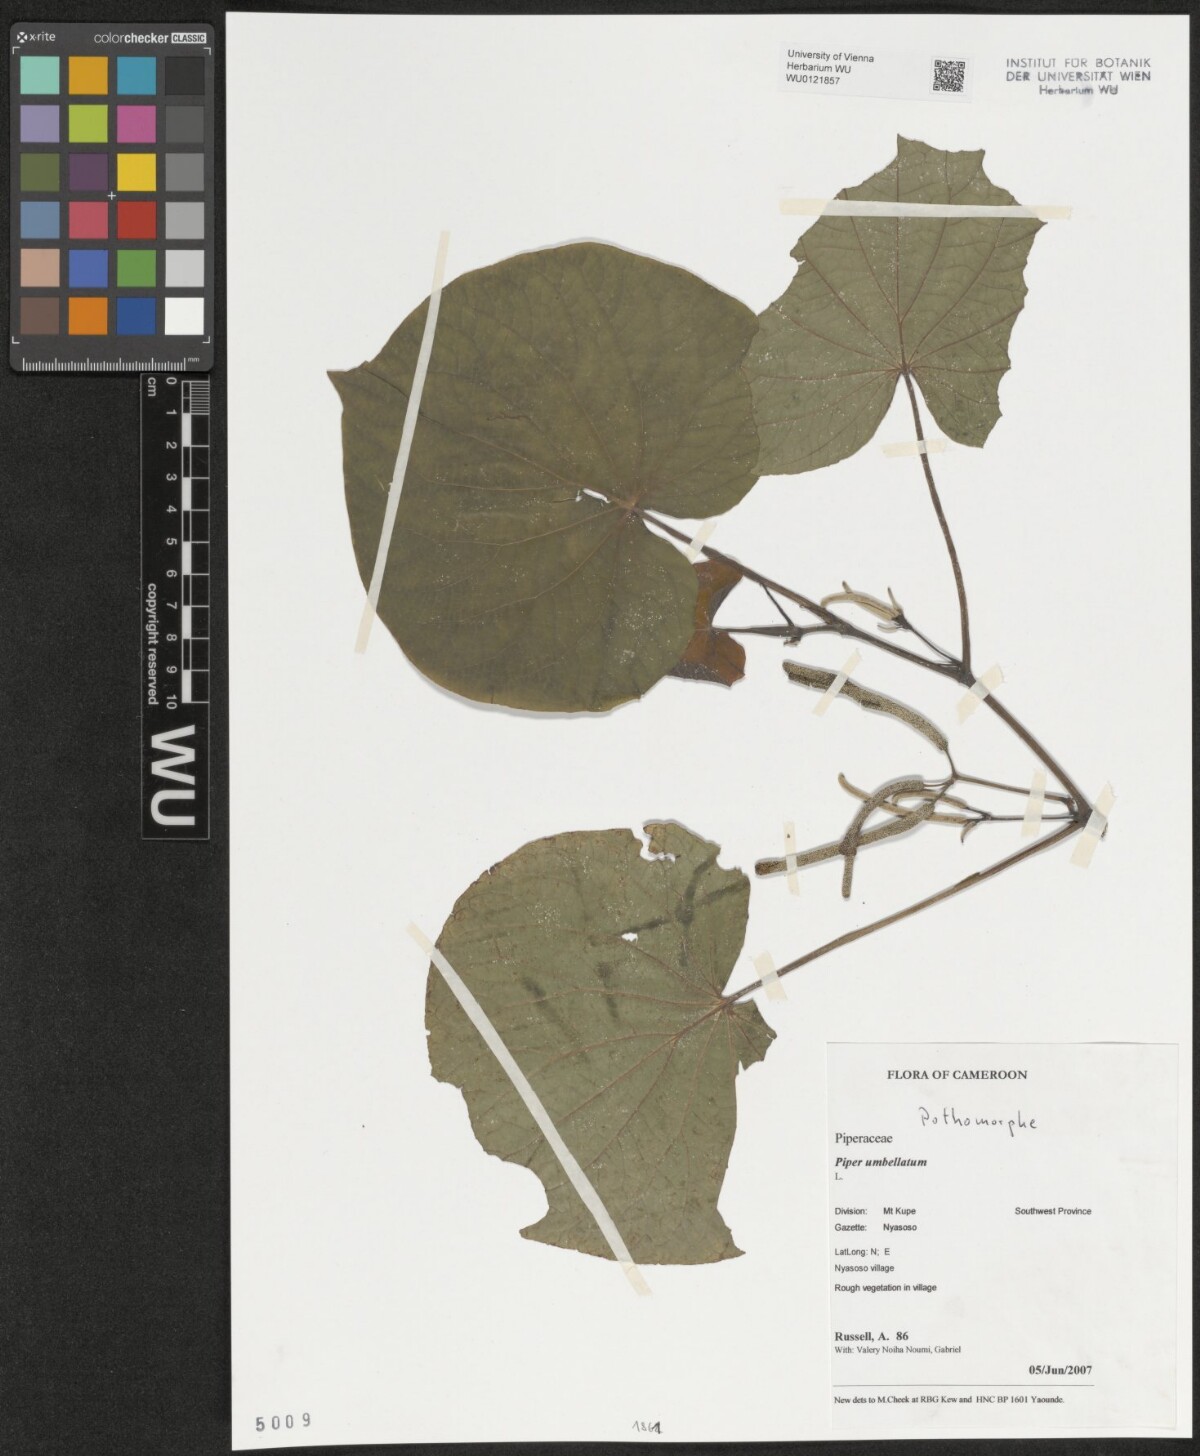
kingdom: Plantae
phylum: Tracheophyta
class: Magnoliopsida
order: Piperales
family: Piperaceae
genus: Piper
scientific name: Piper umbellatum
